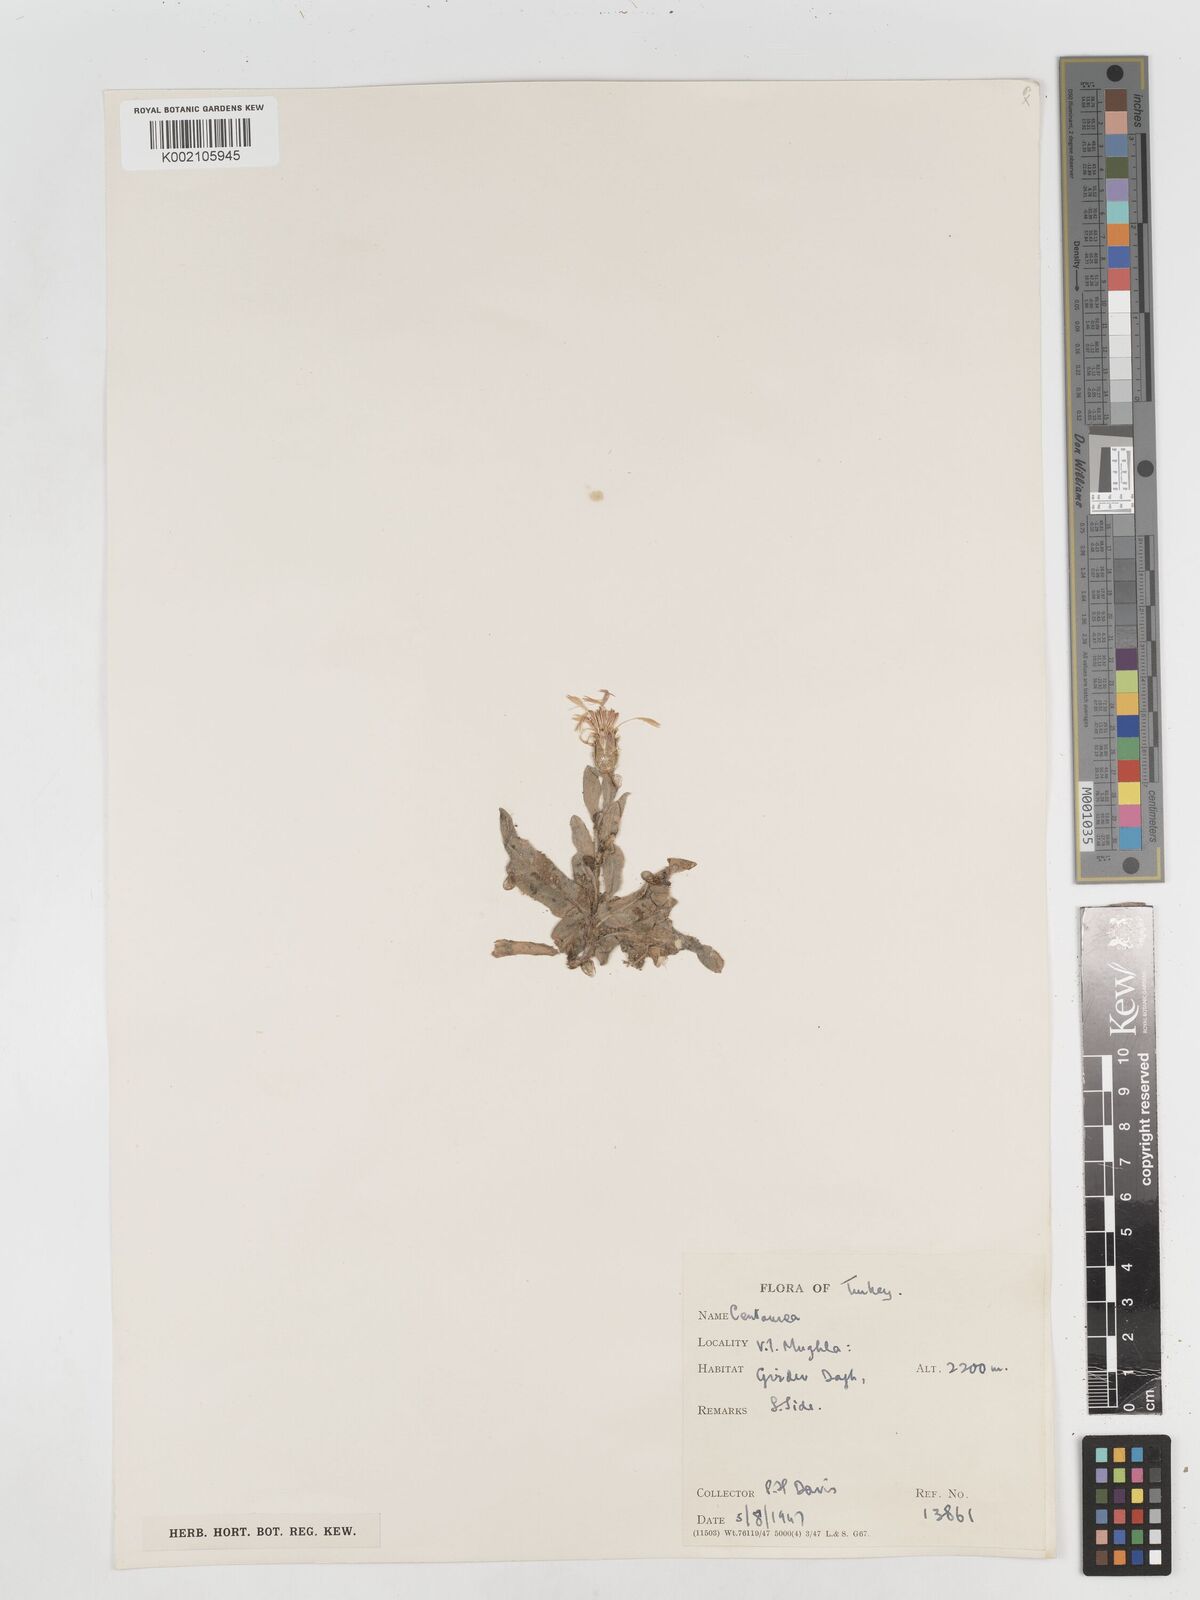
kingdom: Plantae
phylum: Tracheophyta
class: Magnoliopsida
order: Asterales
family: Asteraceae
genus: Centaurea
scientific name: Centaurea
